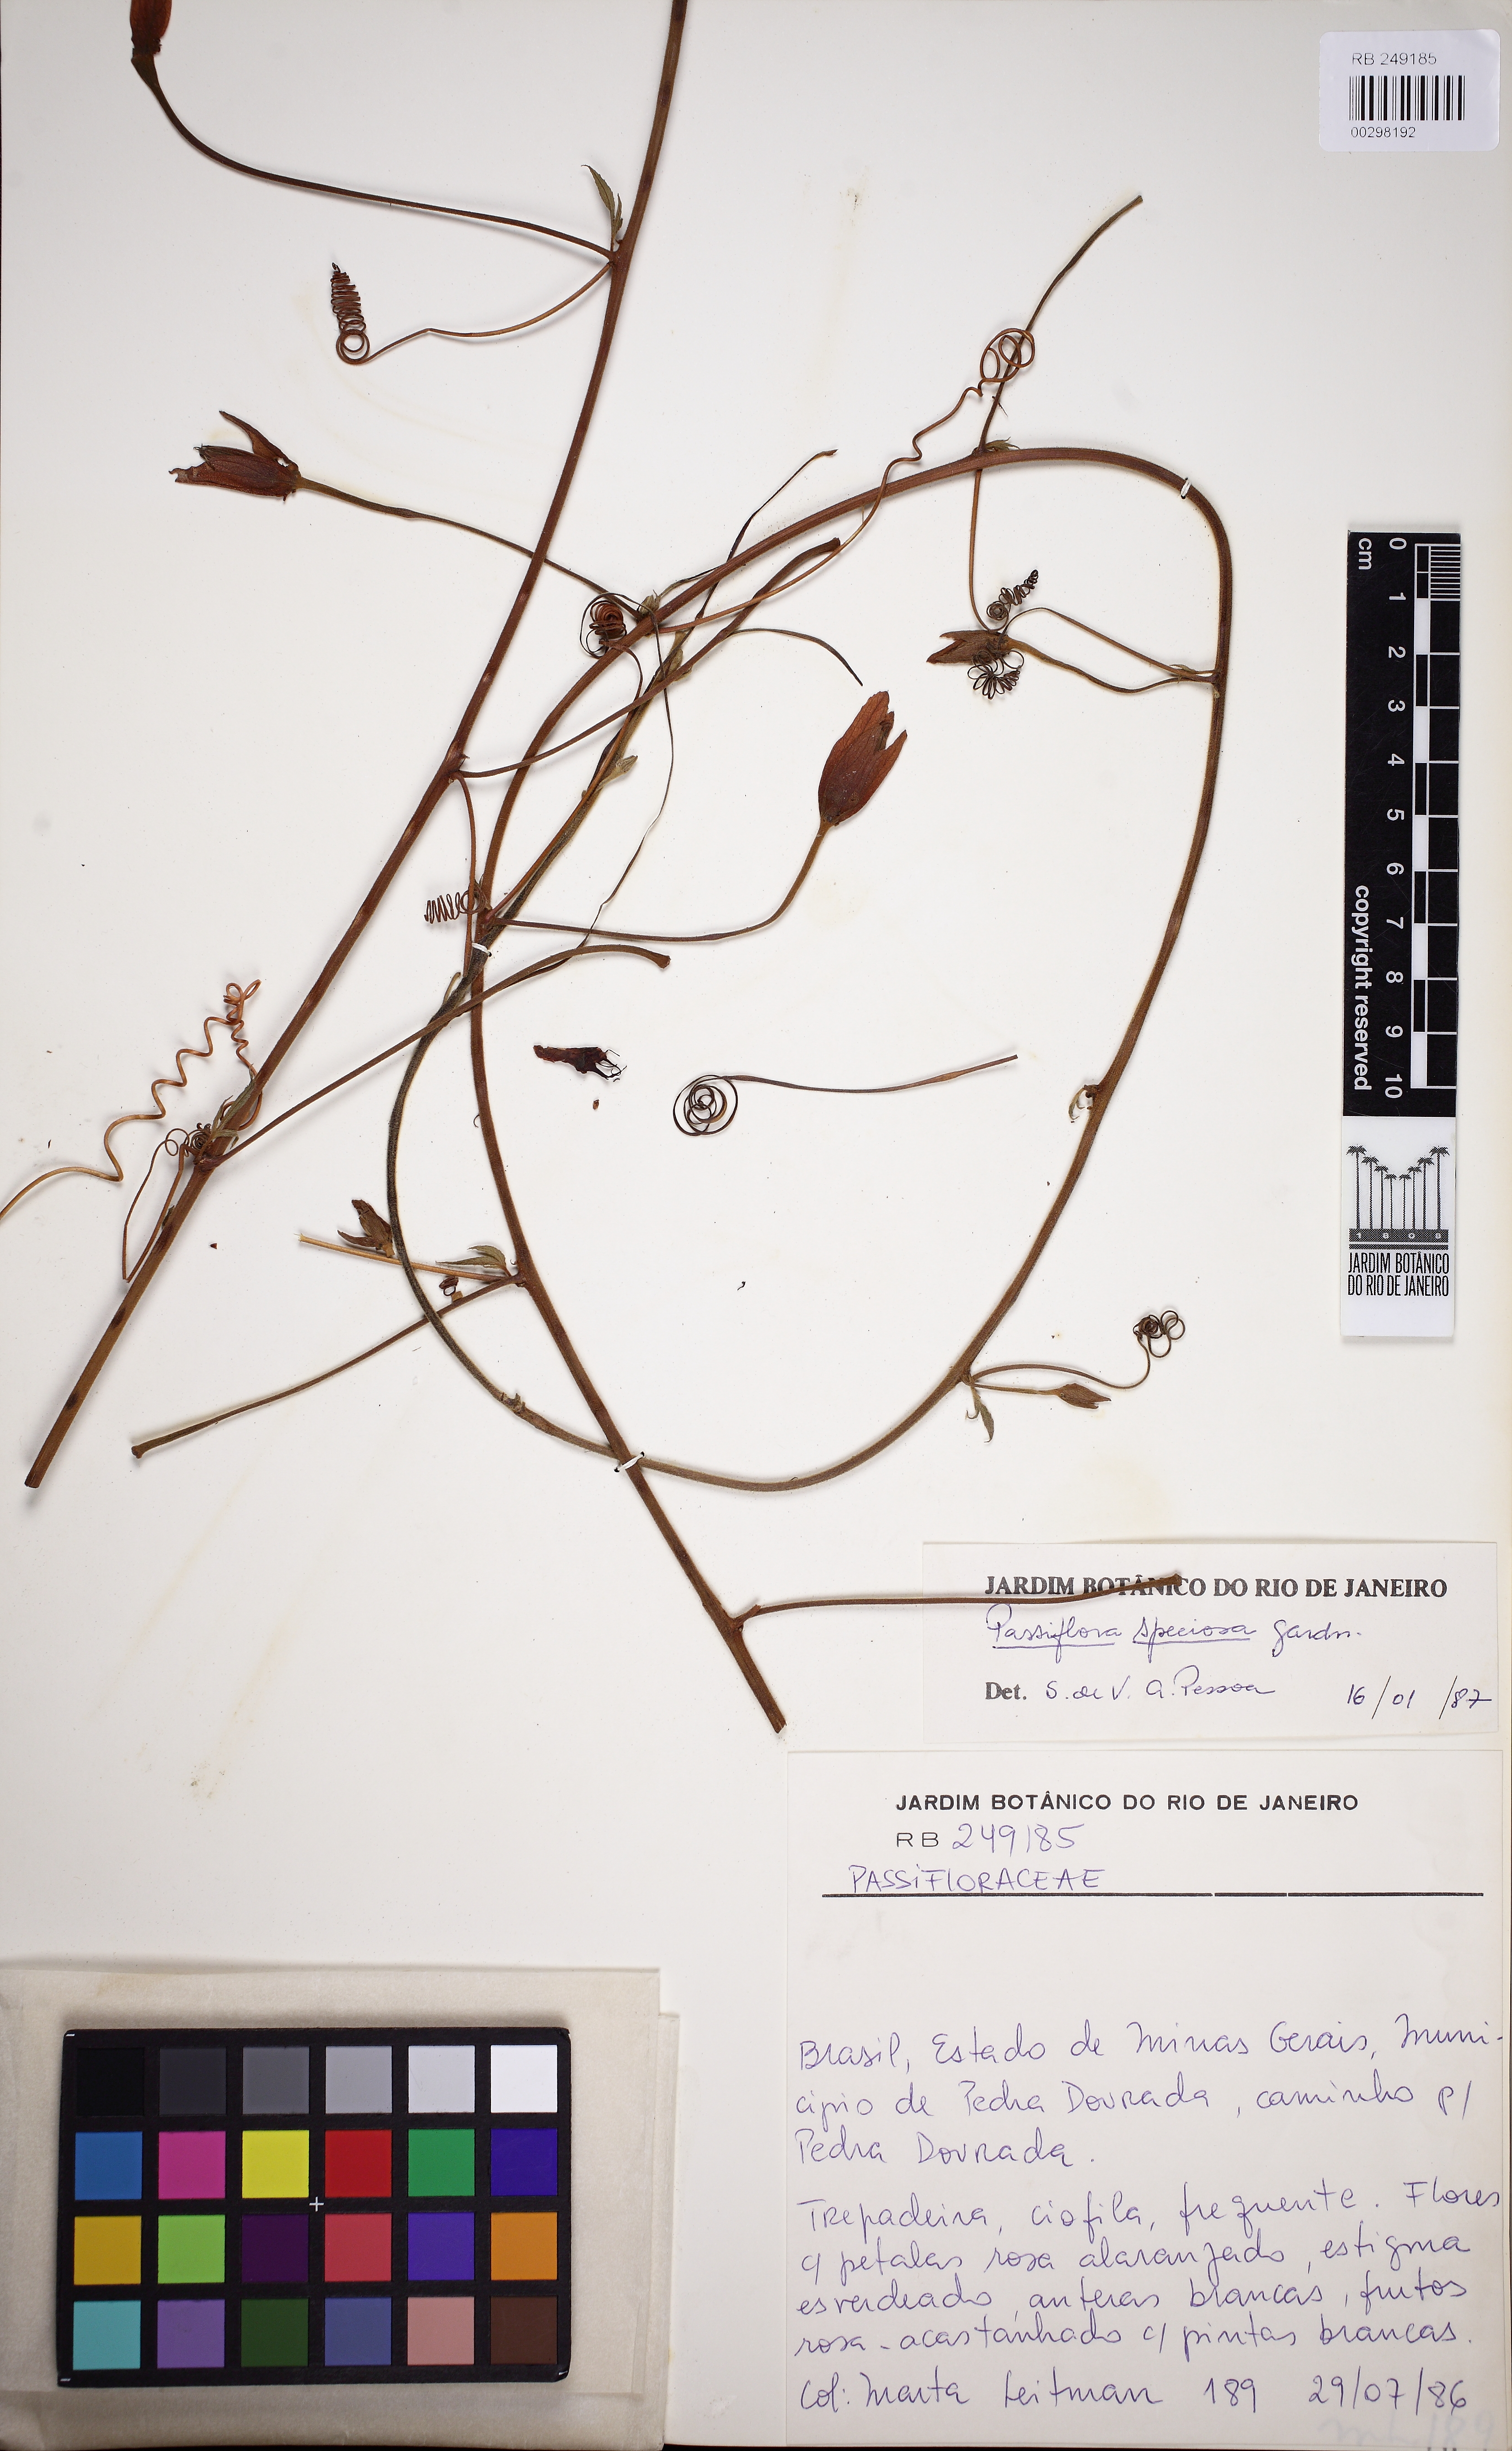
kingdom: Plantae
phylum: Tracheophyta
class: Magnoliopsida
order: Malpighiales
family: Passifloraceae
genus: Passiflora
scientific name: Passiflora speciosa
